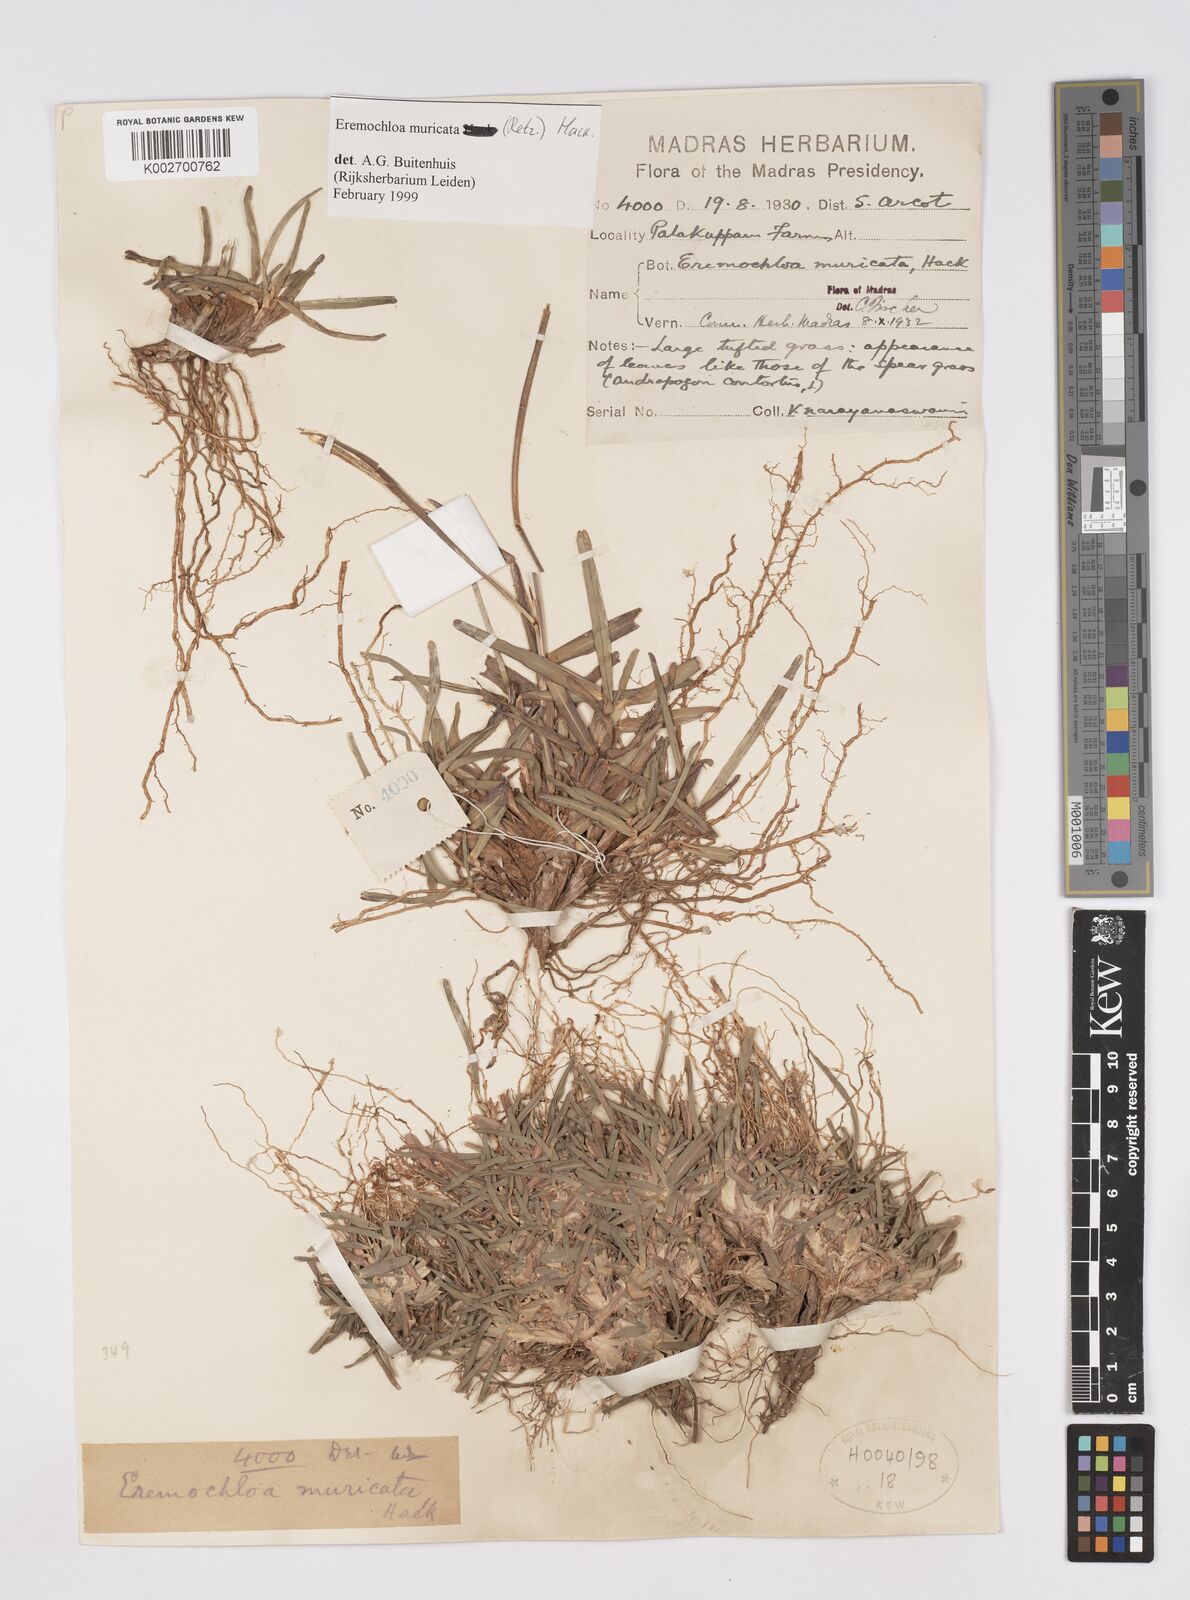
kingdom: Plantae
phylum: Tracheophyta
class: Liliopsida
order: Poales
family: Poaceae
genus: Eremochloa
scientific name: Eremochloa muricata
